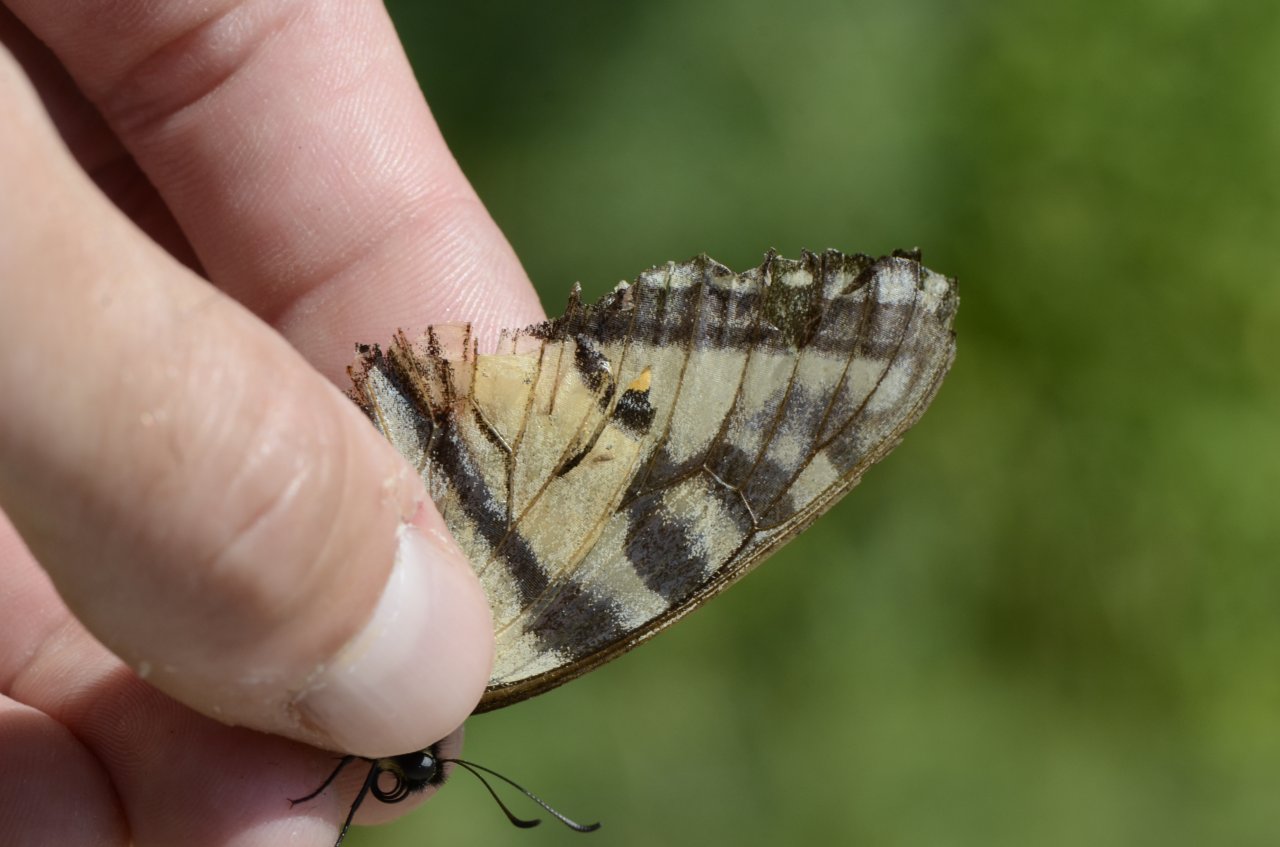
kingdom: Animalia
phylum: Arthropoda
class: Insecta
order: Lepidoptera
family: Papilionidae
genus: Pterourus
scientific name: Pterourus glaucus
